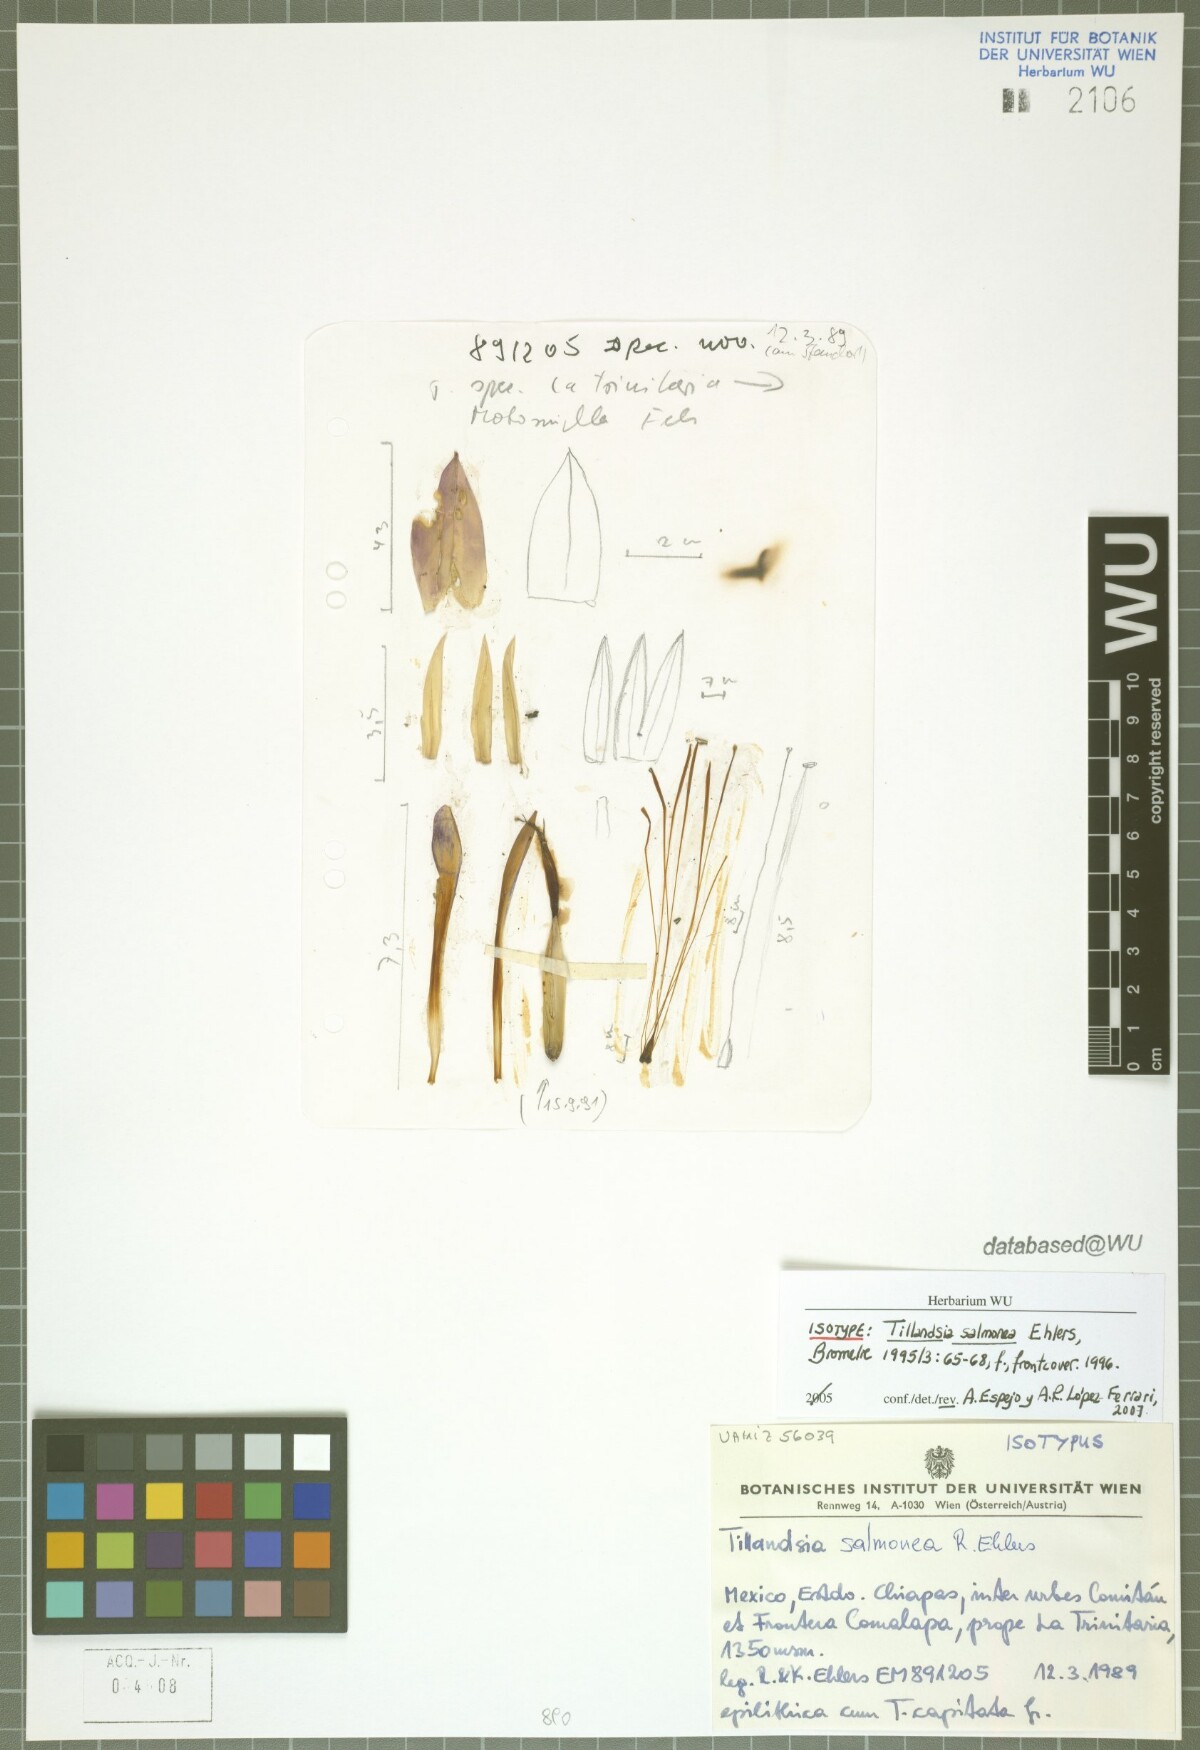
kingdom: Plantae
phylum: Tracheophyta
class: Liliopsida
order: Poales
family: Bromeliaceae
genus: Tillandsia
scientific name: Tillandsia salmonea
